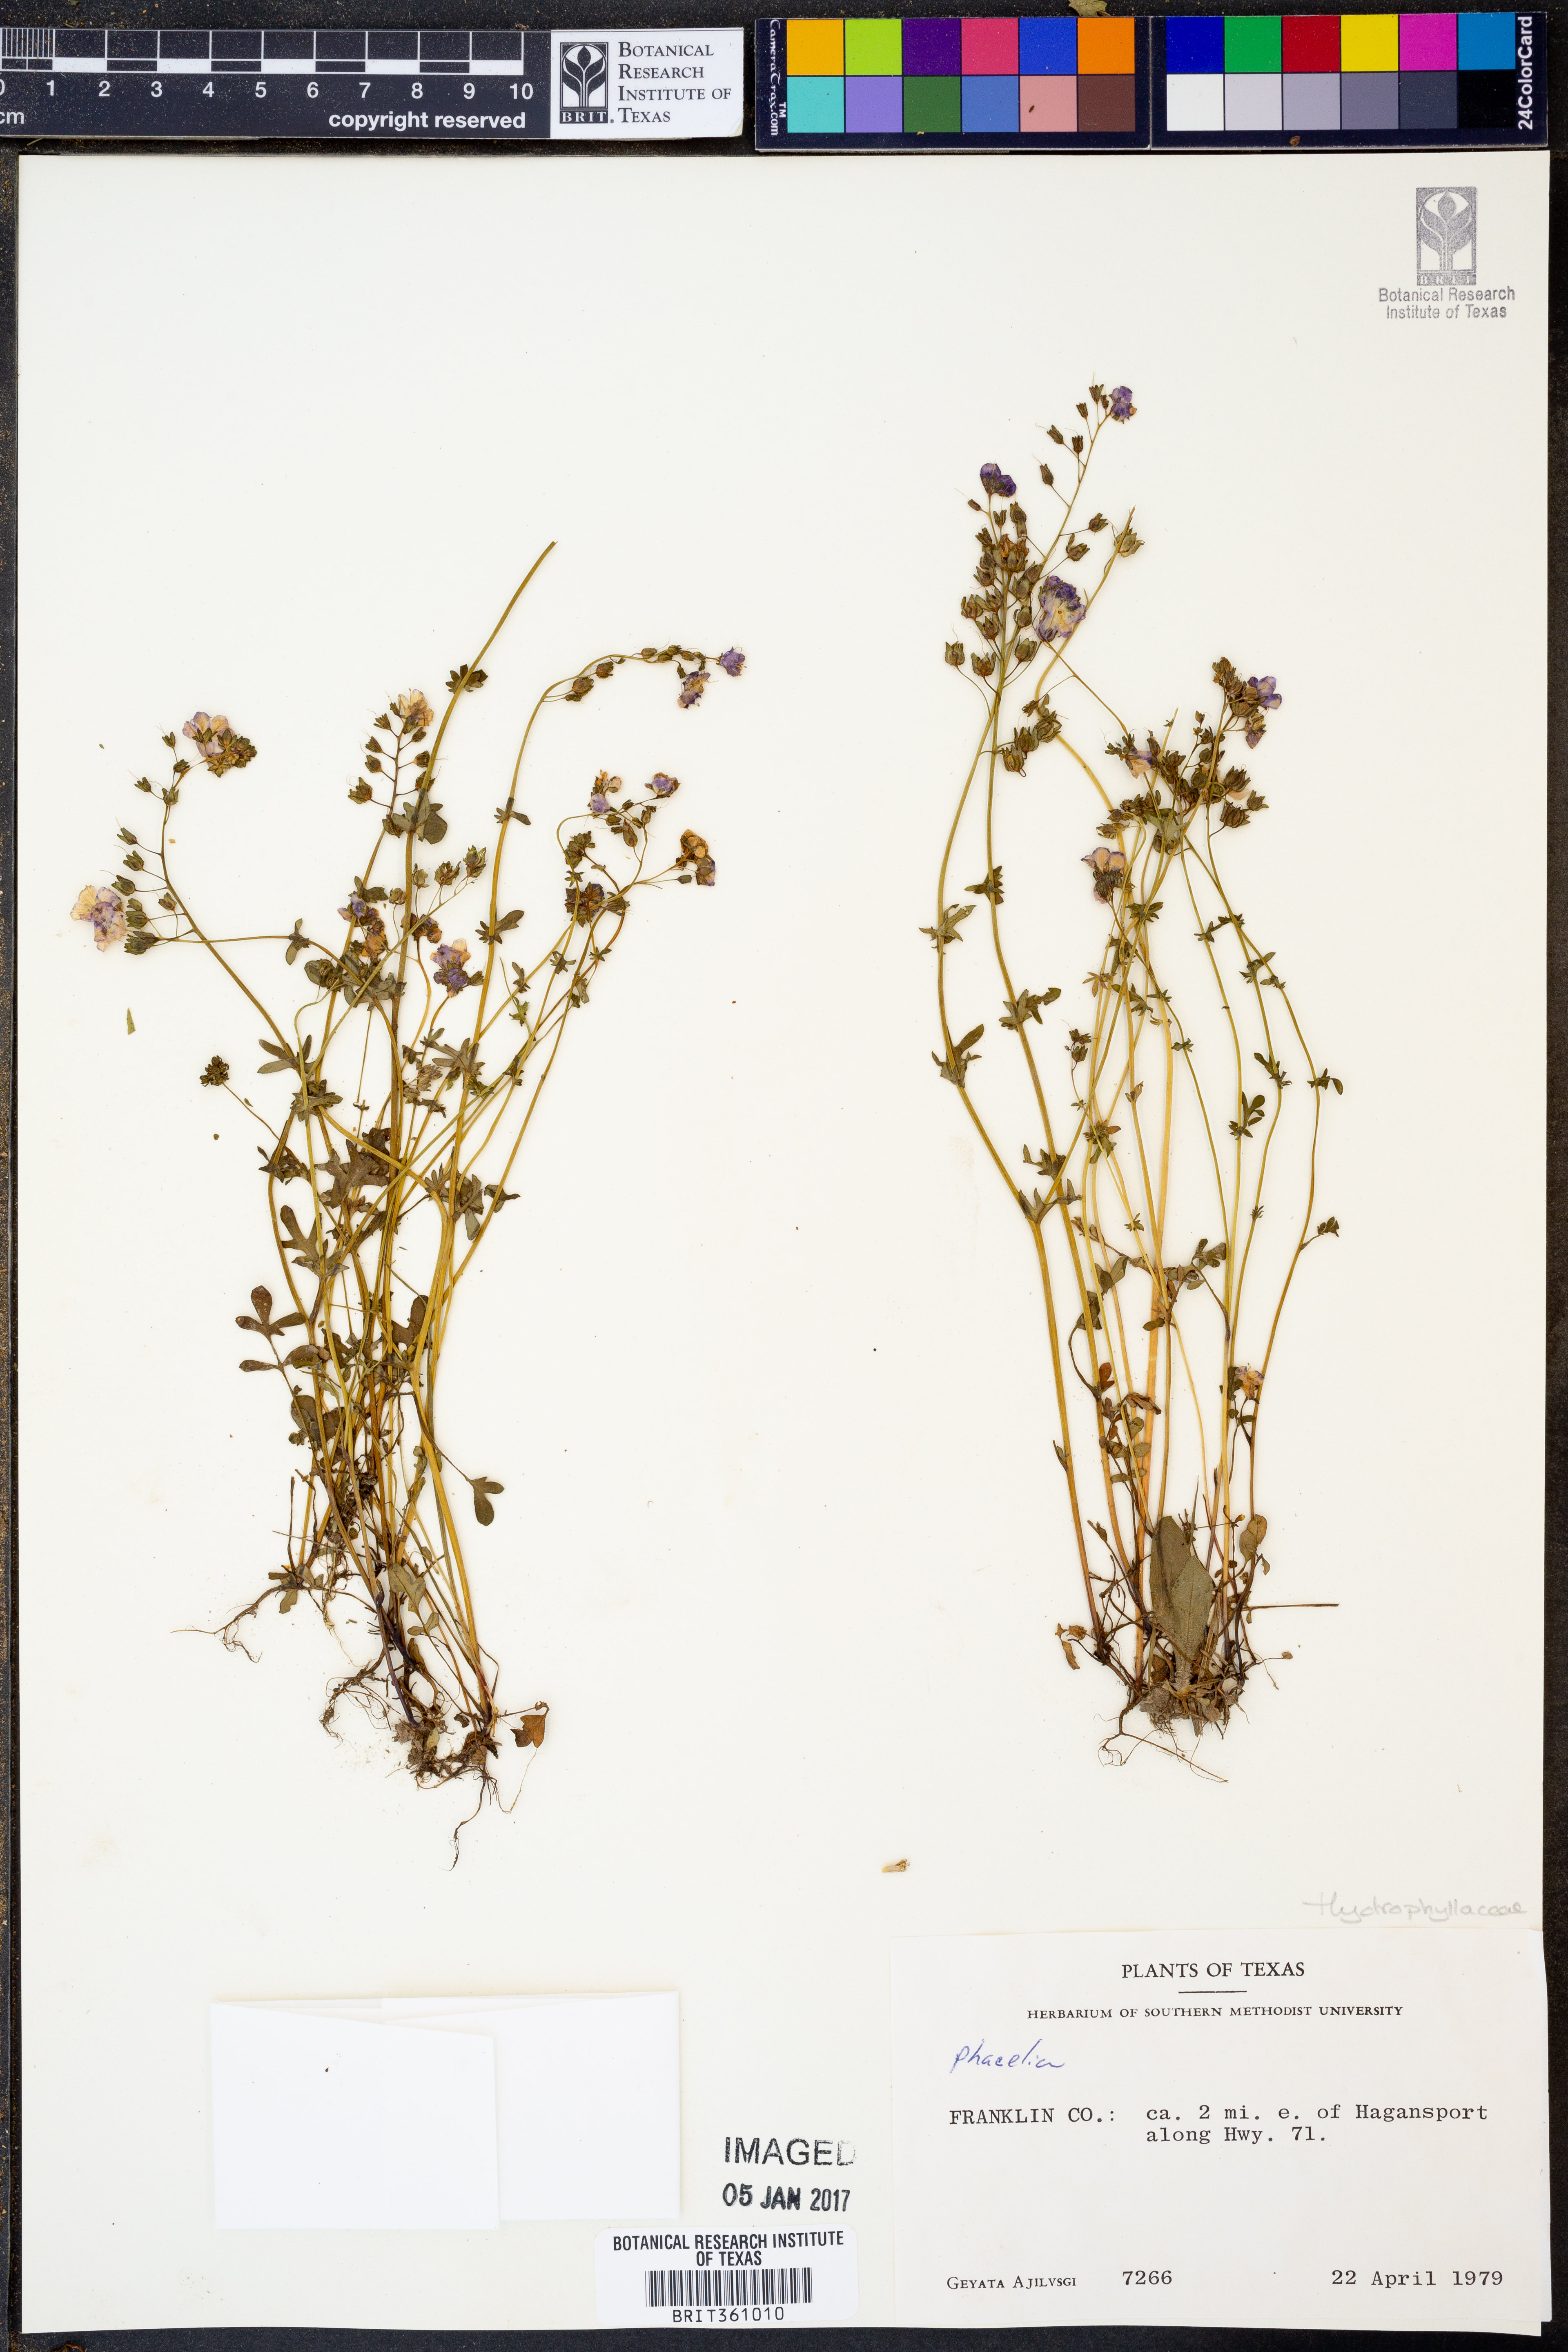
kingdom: Plantae
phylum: Tracheophyta
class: Magnoliopsida
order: Boraginales
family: Hydrophyllaceae
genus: Phacelia
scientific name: Phacelia
